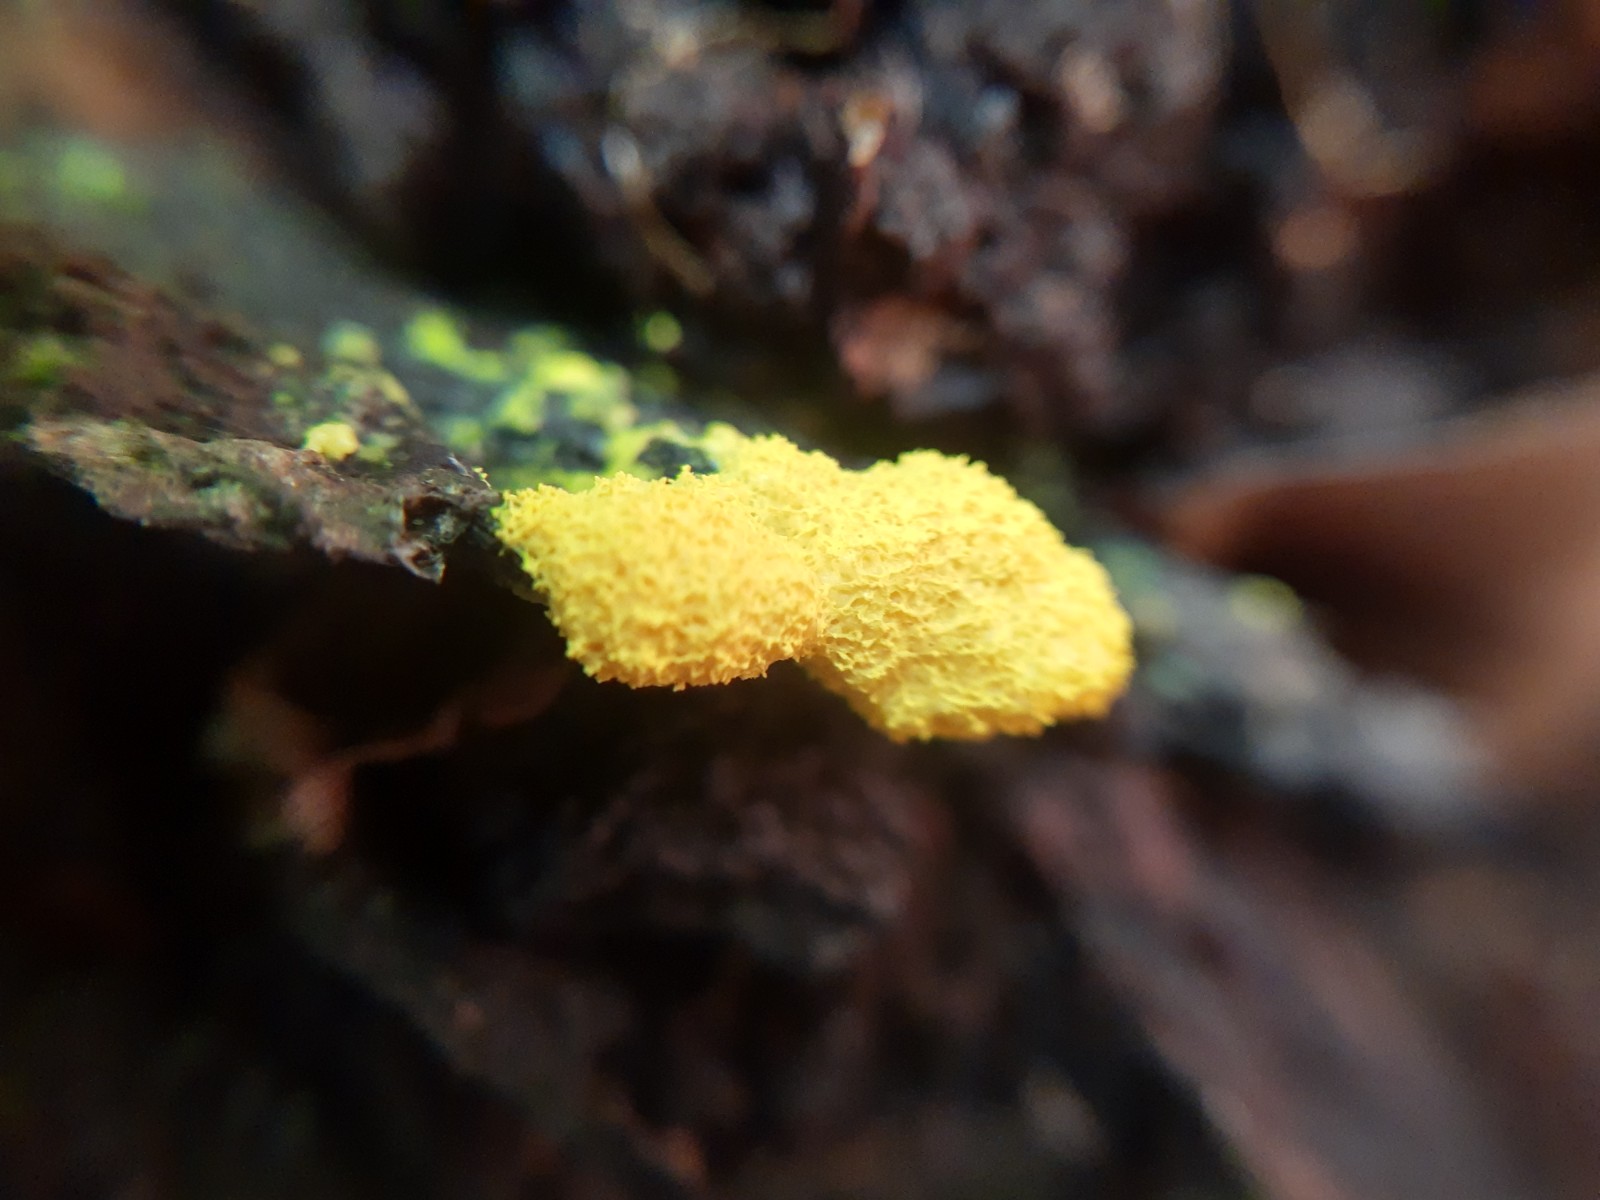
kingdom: Protozoa
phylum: Mycetozoa
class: Myxomycetes
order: Physarales
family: Physaraceae
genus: Fuligo
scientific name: Fuligo septica
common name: gul troldsmør
